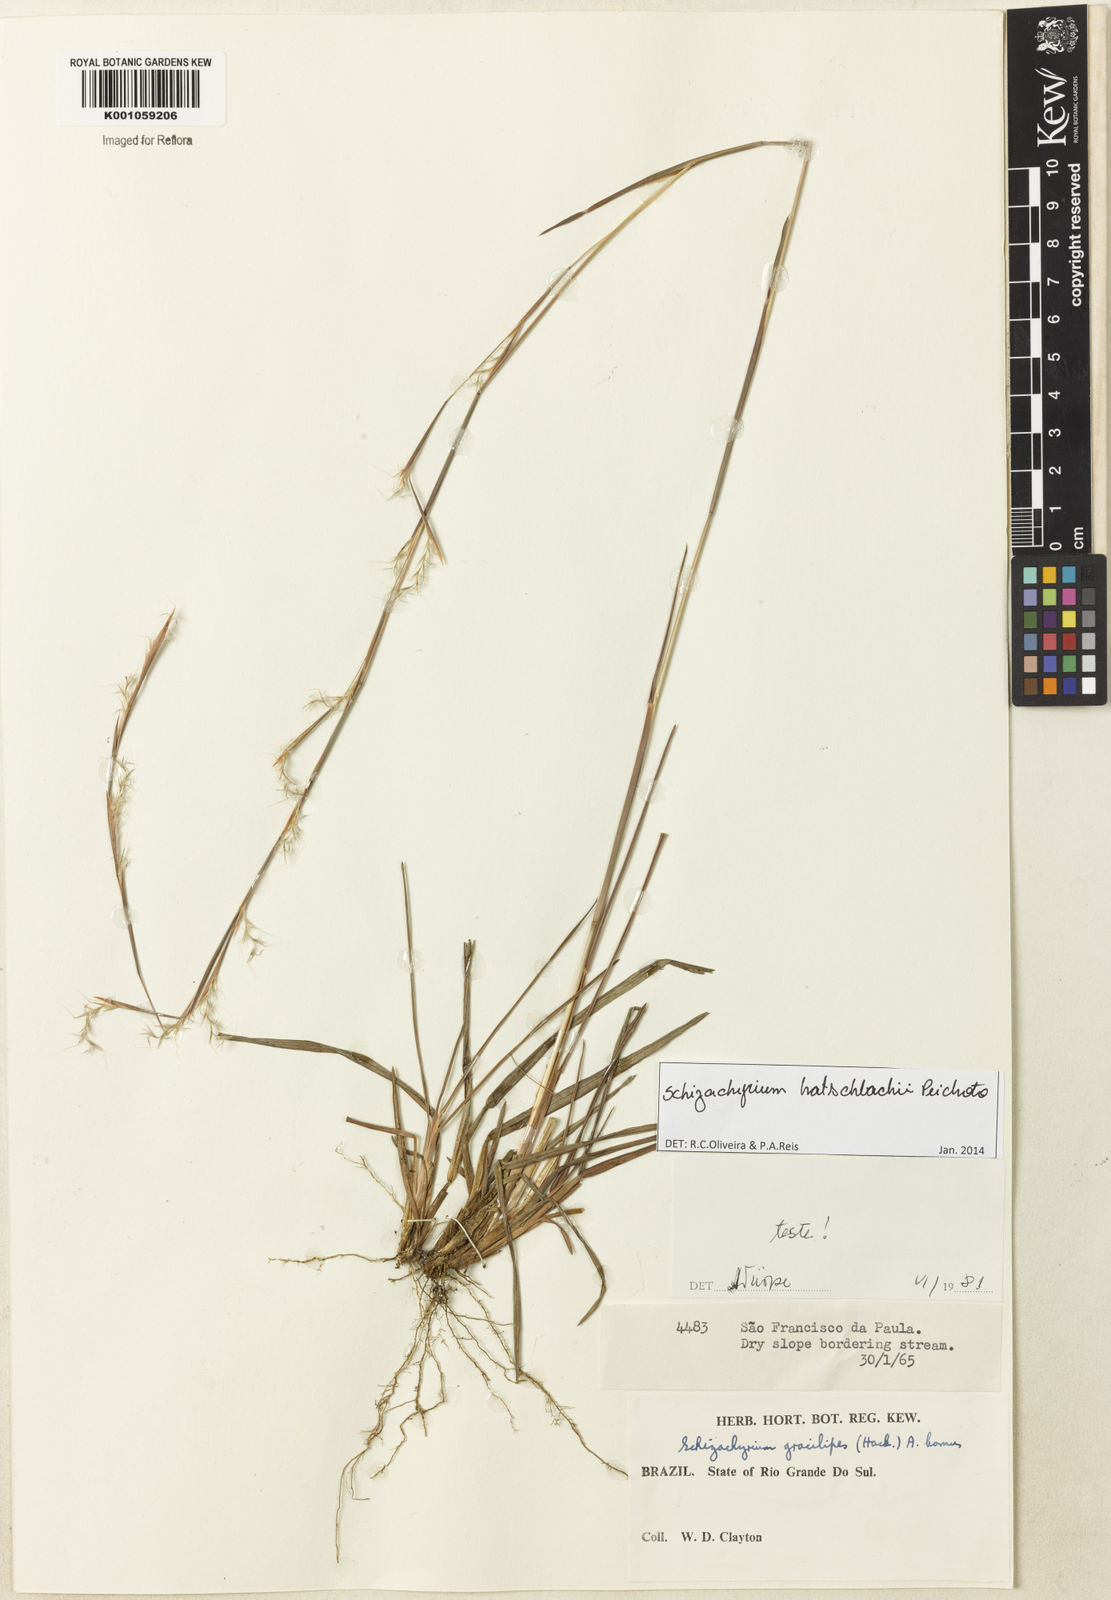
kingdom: Plantae
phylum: Tracheophyta
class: Liliopsida
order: Poales
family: Poaceae
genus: Schizachyrium
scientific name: Schizachyrium hatschbachii
